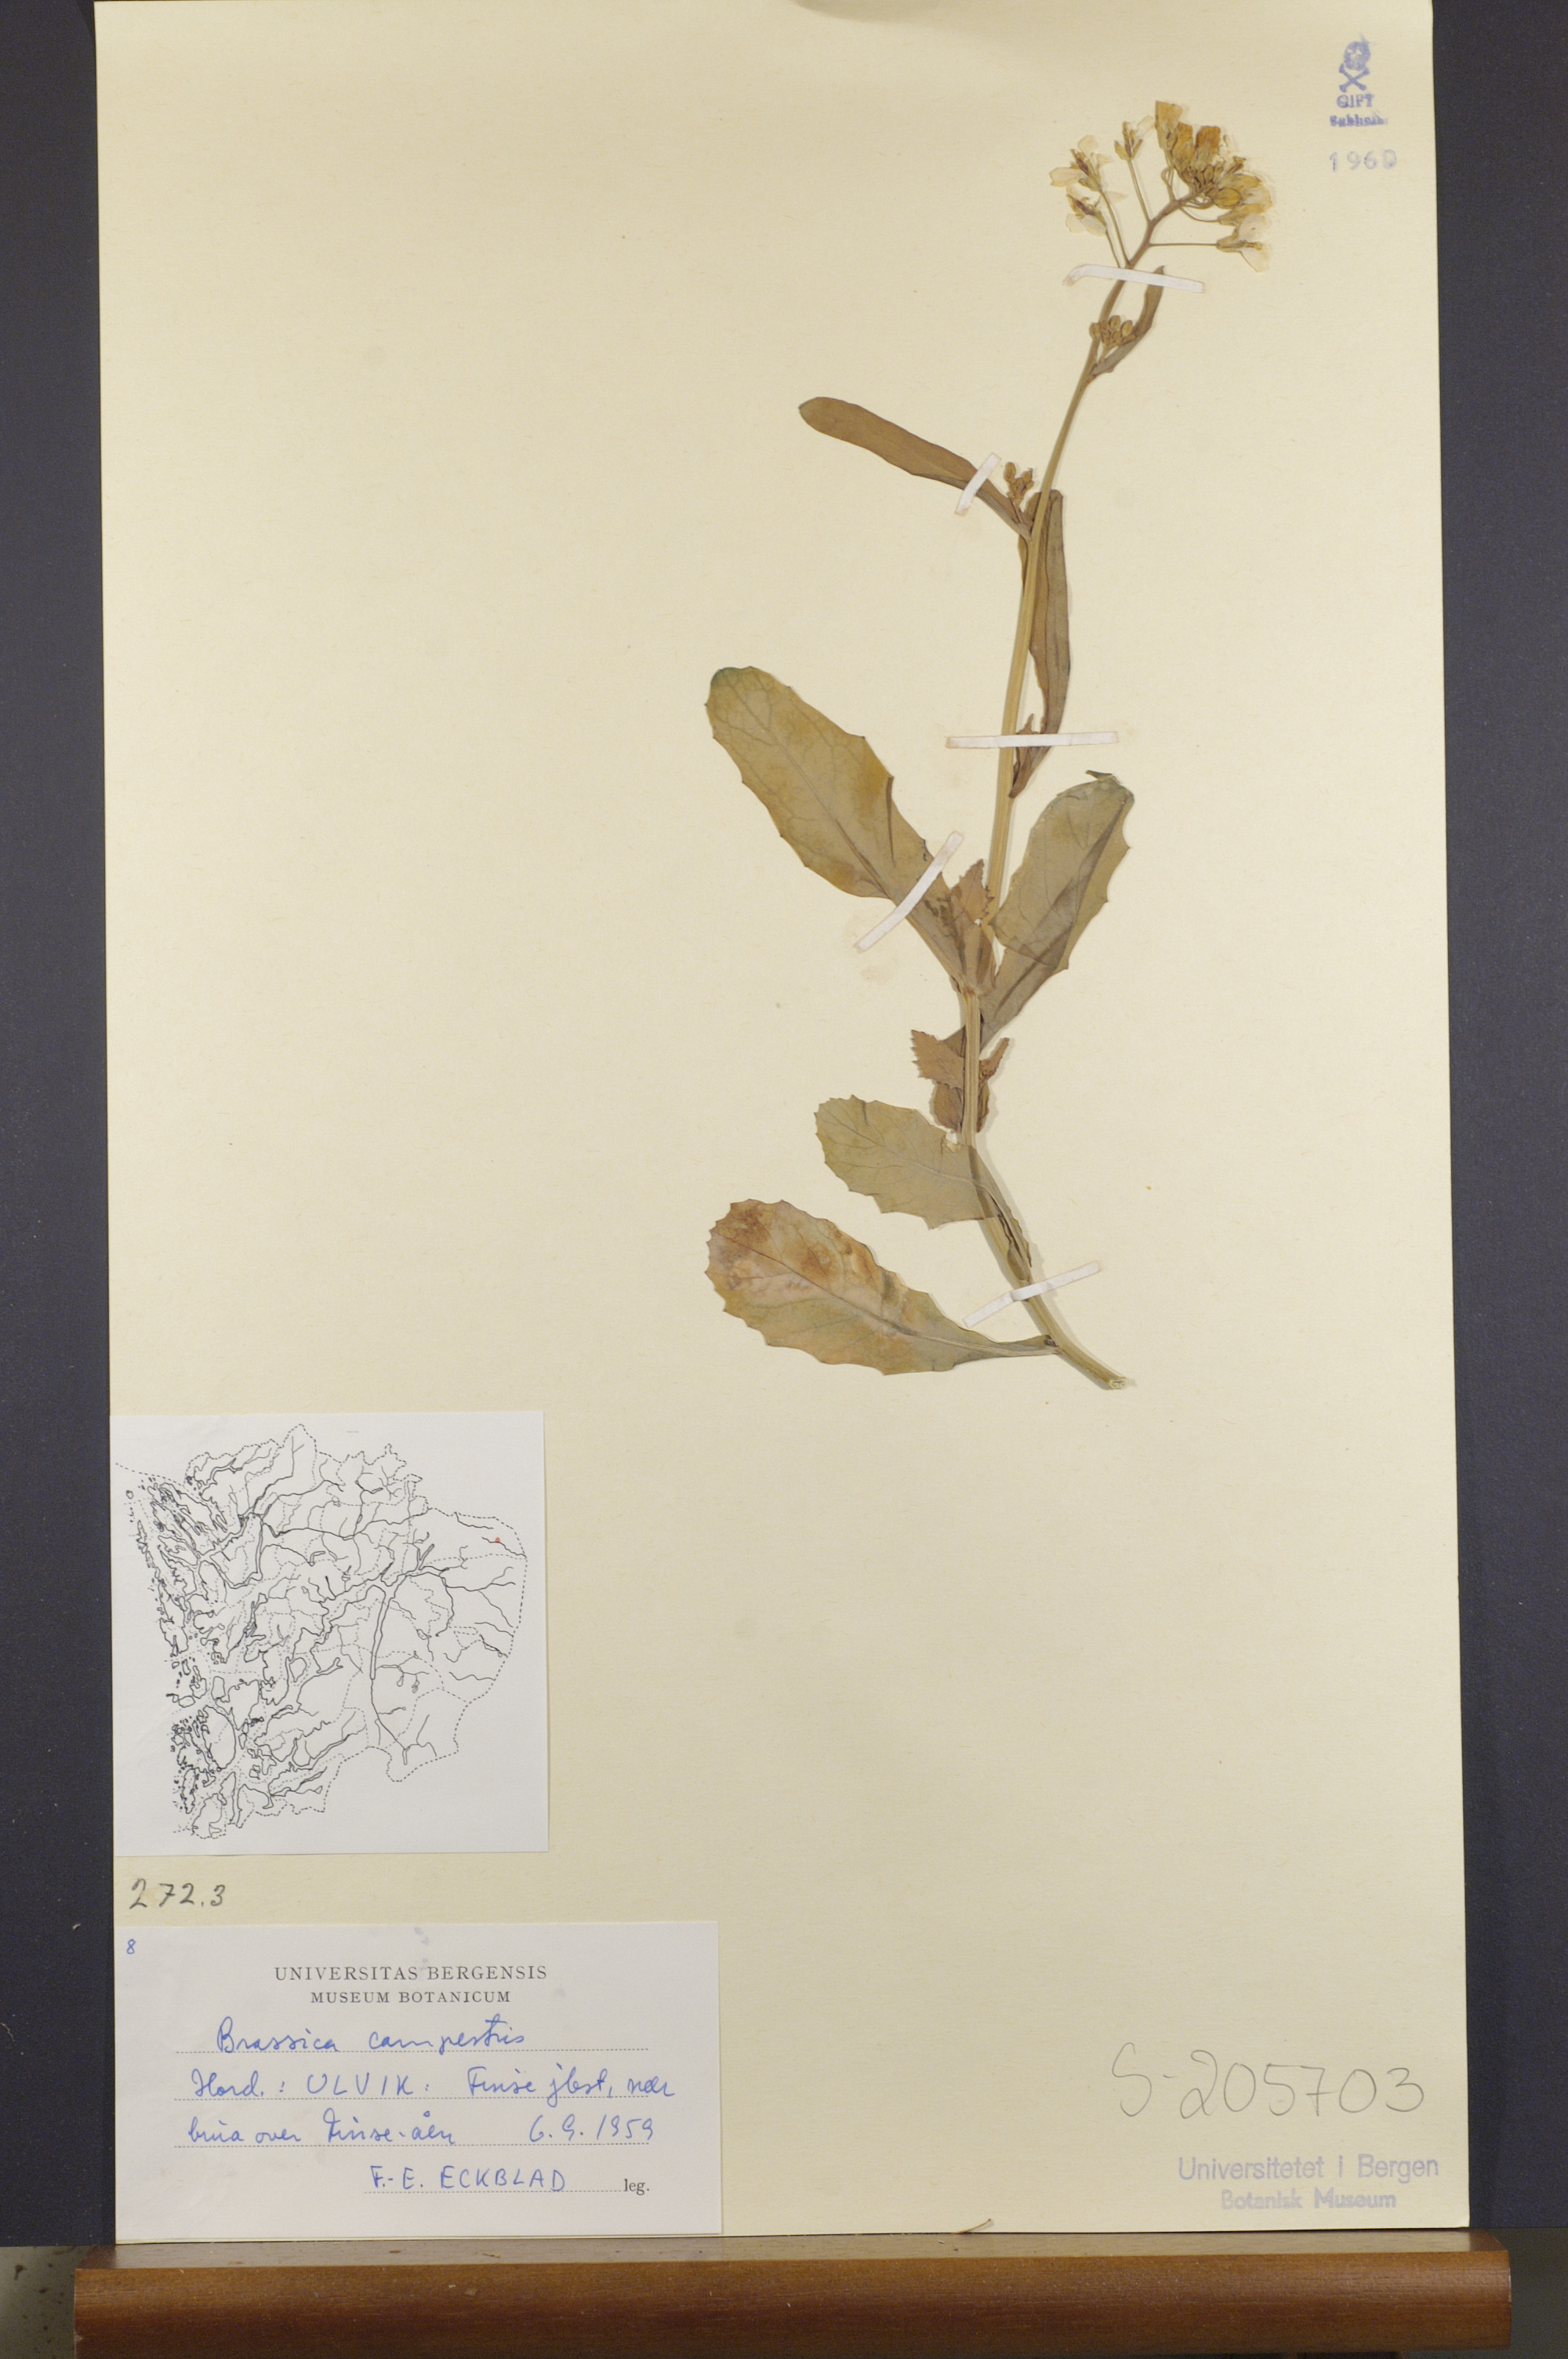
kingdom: Plantae
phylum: Tracheophyta
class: Magnoliopsida
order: Brassicales
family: Brassicaceae
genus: Brassica
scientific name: Brassica rapa
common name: Field mustard
